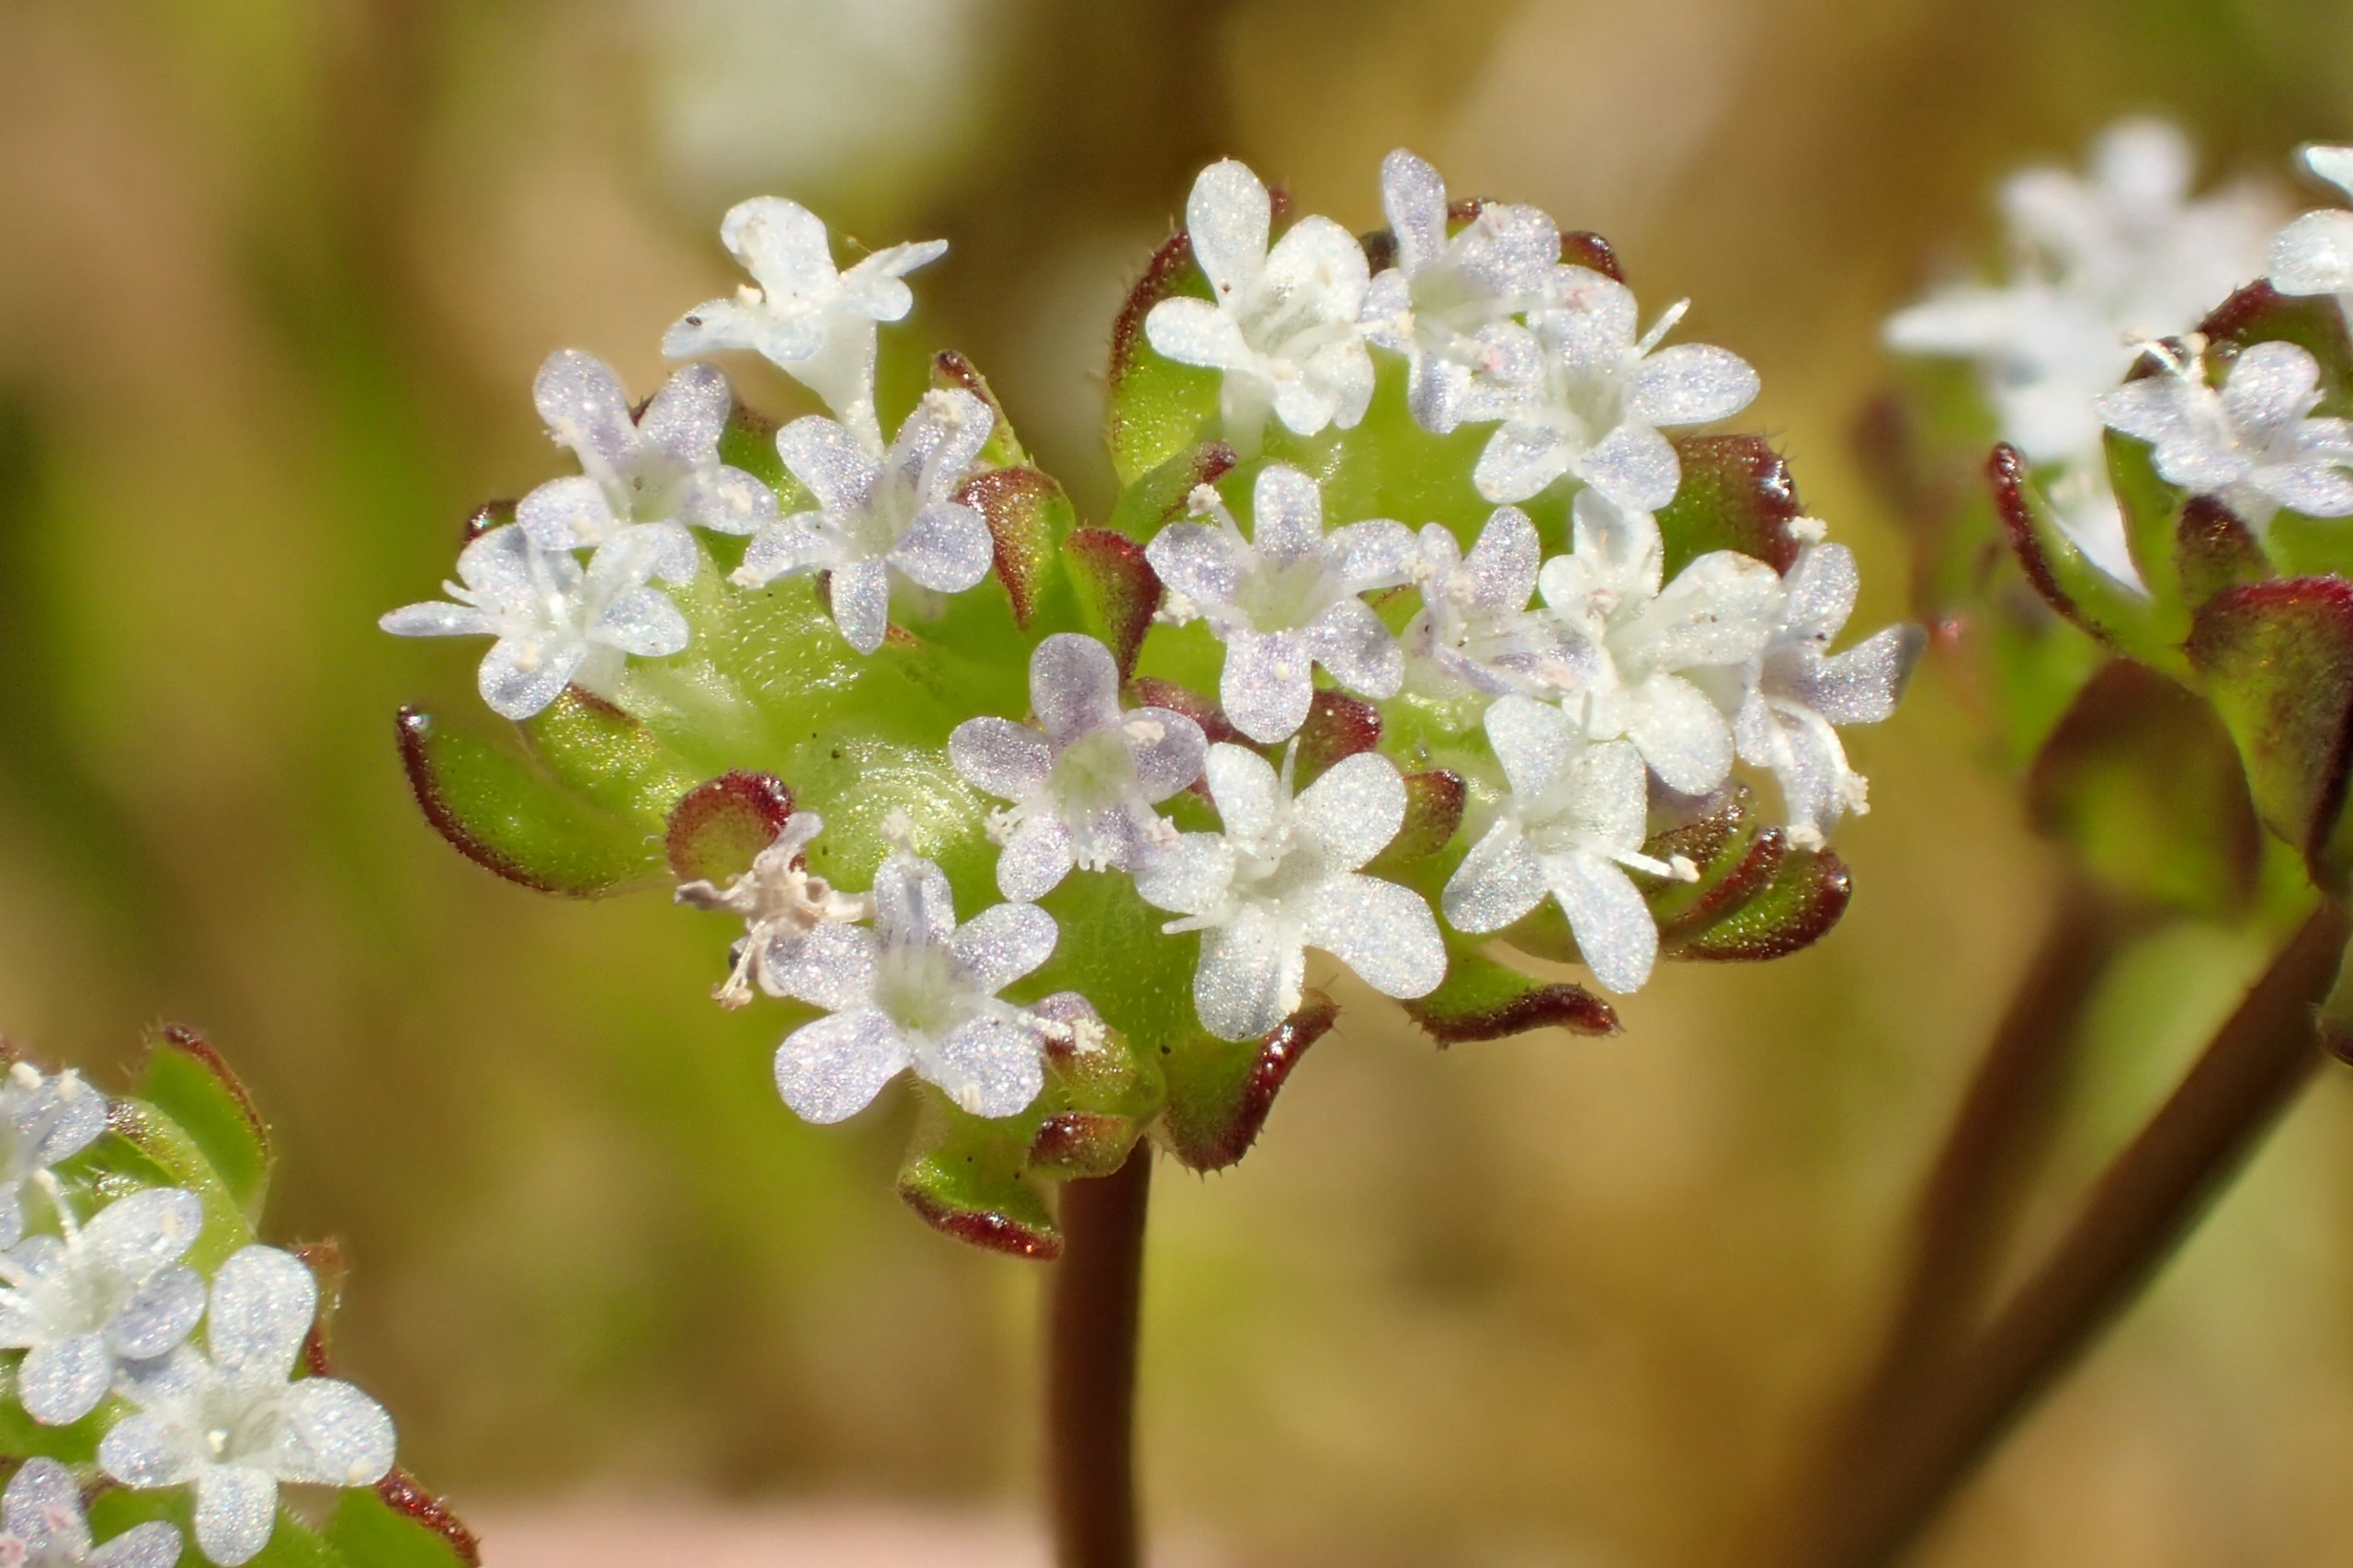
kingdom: Plantae
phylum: Tracheophyta
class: Magnoliopsida
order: Dipsacales
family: Caprifoliaceae
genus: Valerianella
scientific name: Valerianella locusta
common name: Tandfri vårsalat
